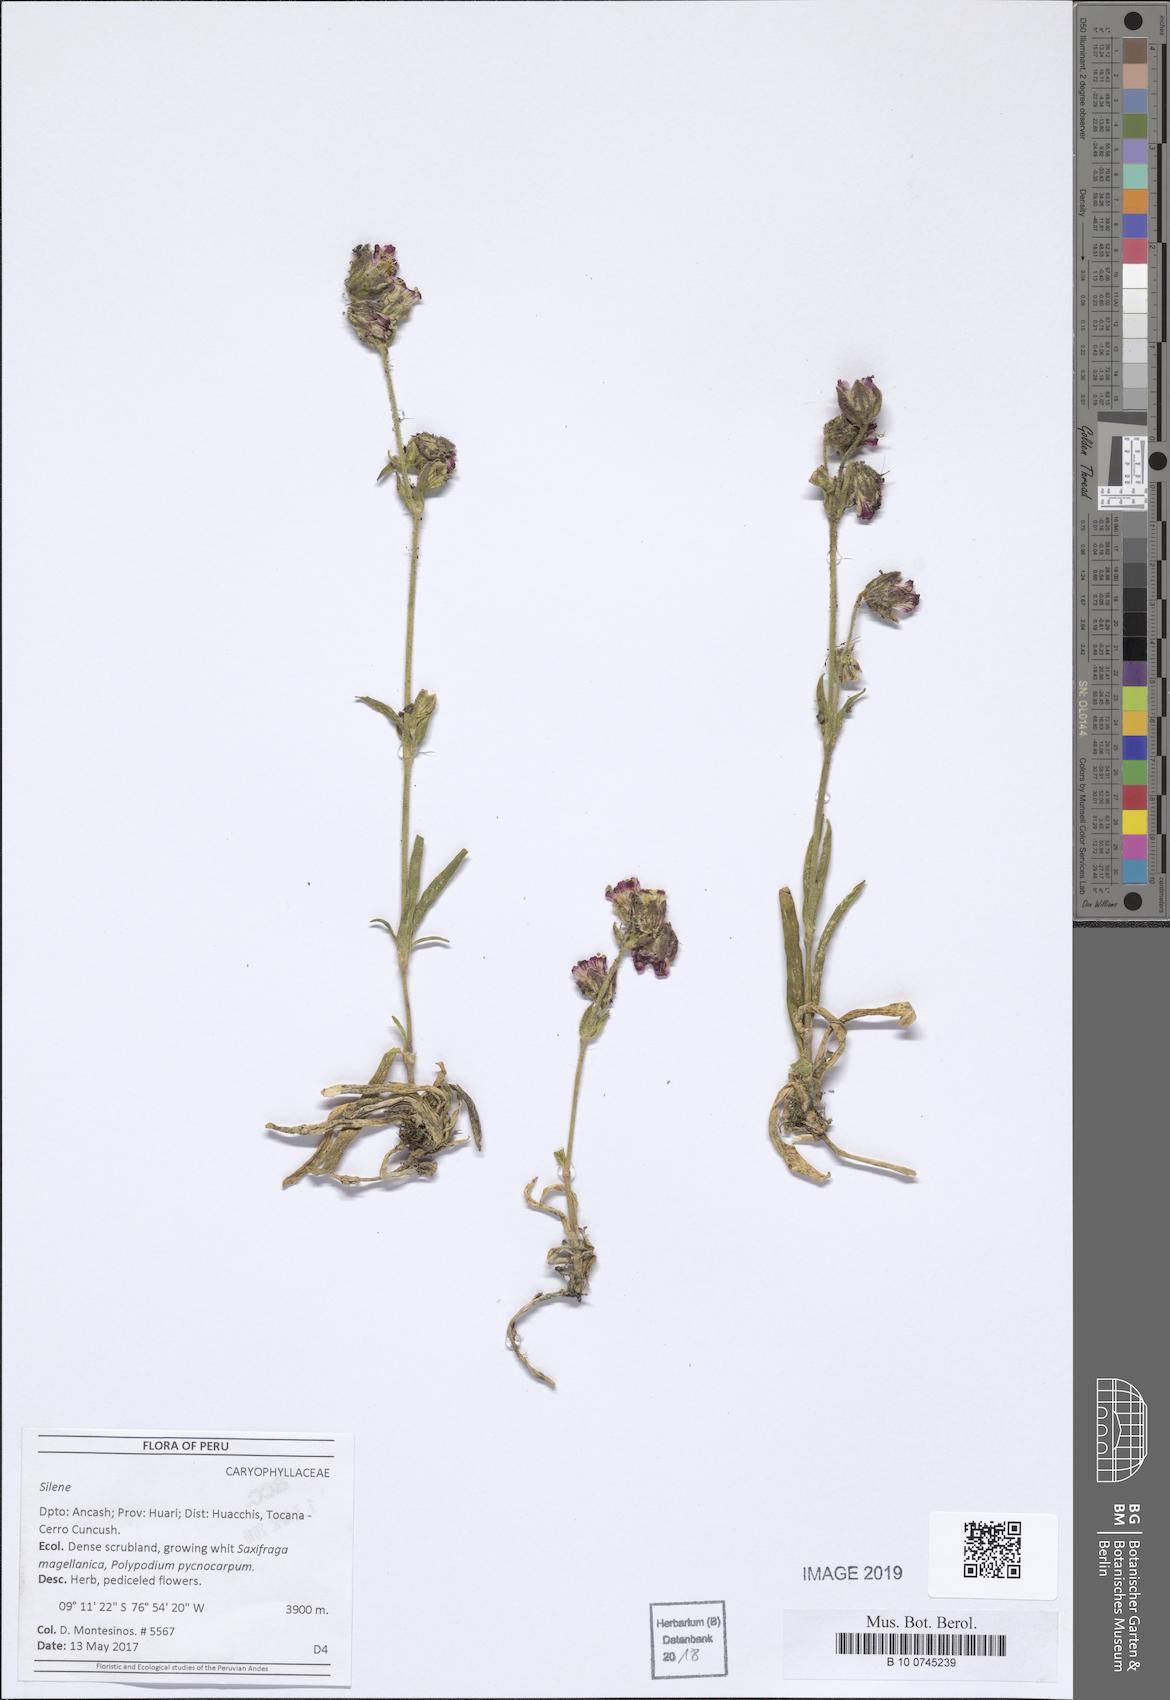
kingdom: Plantae
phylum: Tracheophyta
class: Magnoliopsida
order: Caryophyllales
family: Caryophyllaceae
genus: Silene
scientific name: Silene
